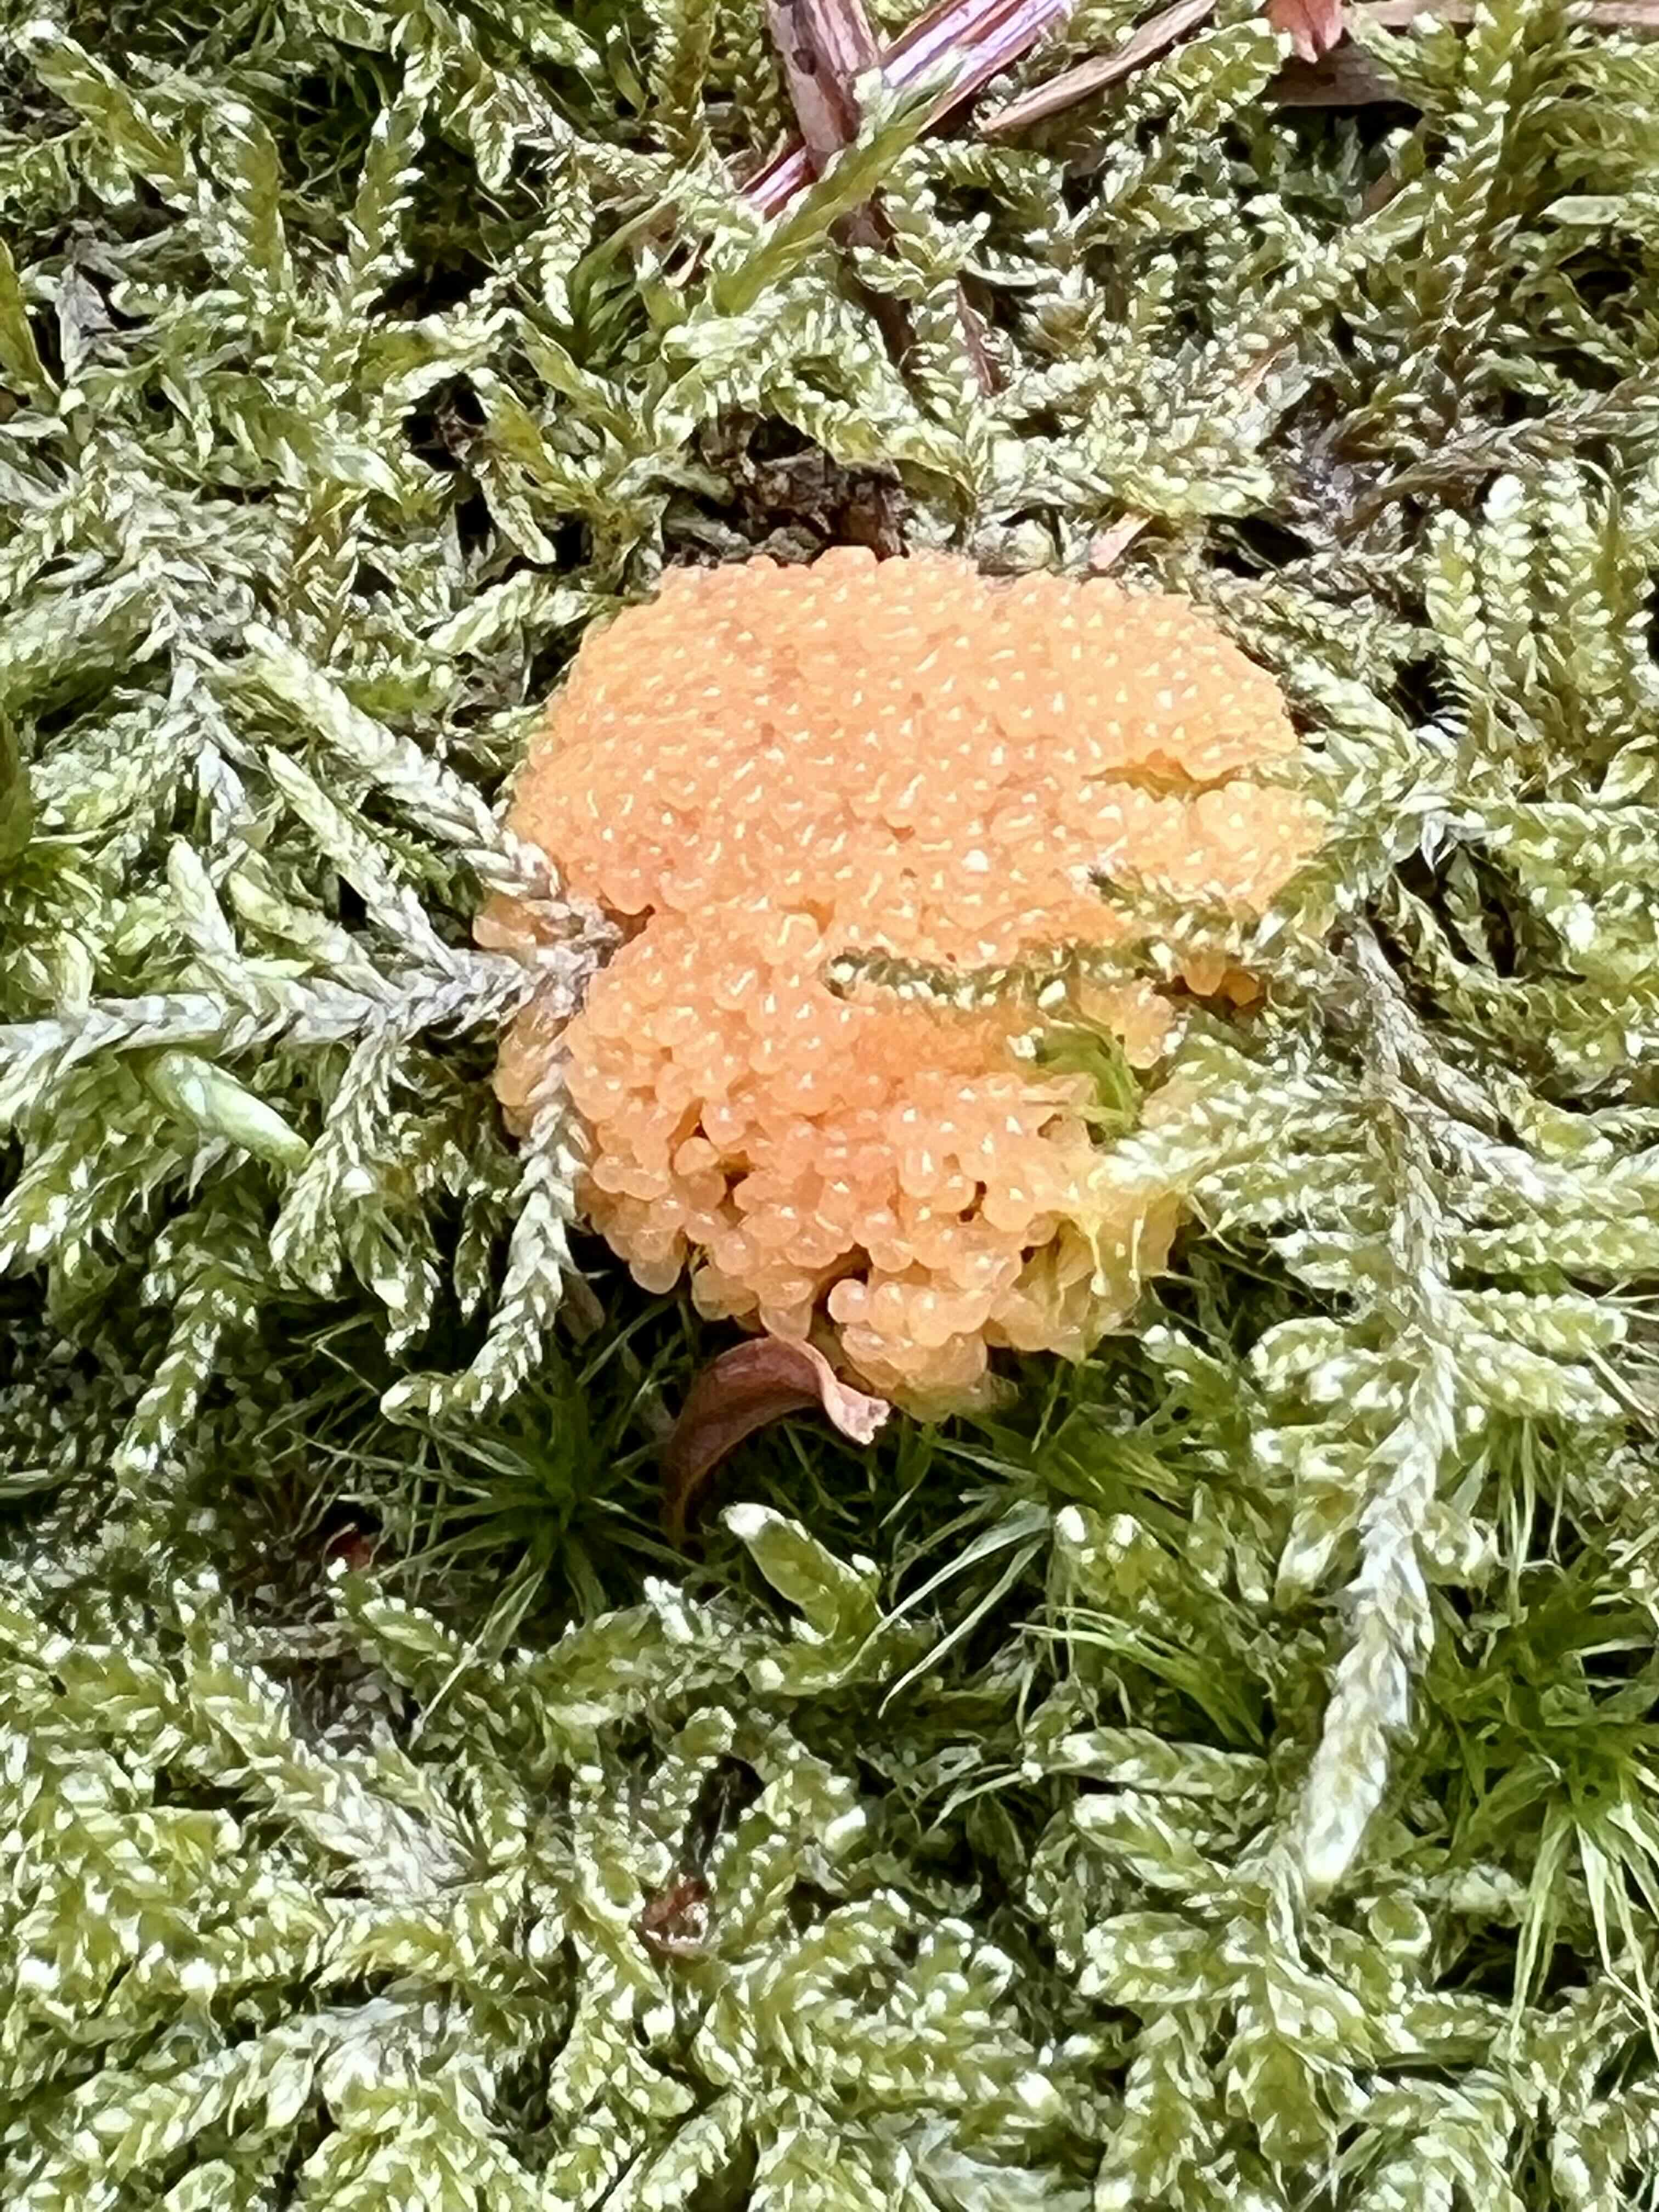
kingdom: Protozoa
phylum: Mycetozoa
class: Myxomycetes
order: Cribrariales
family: Tubiferaceae
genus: Tubifera
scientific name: Tubifera ferruginosa
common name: kanel-støvrør
